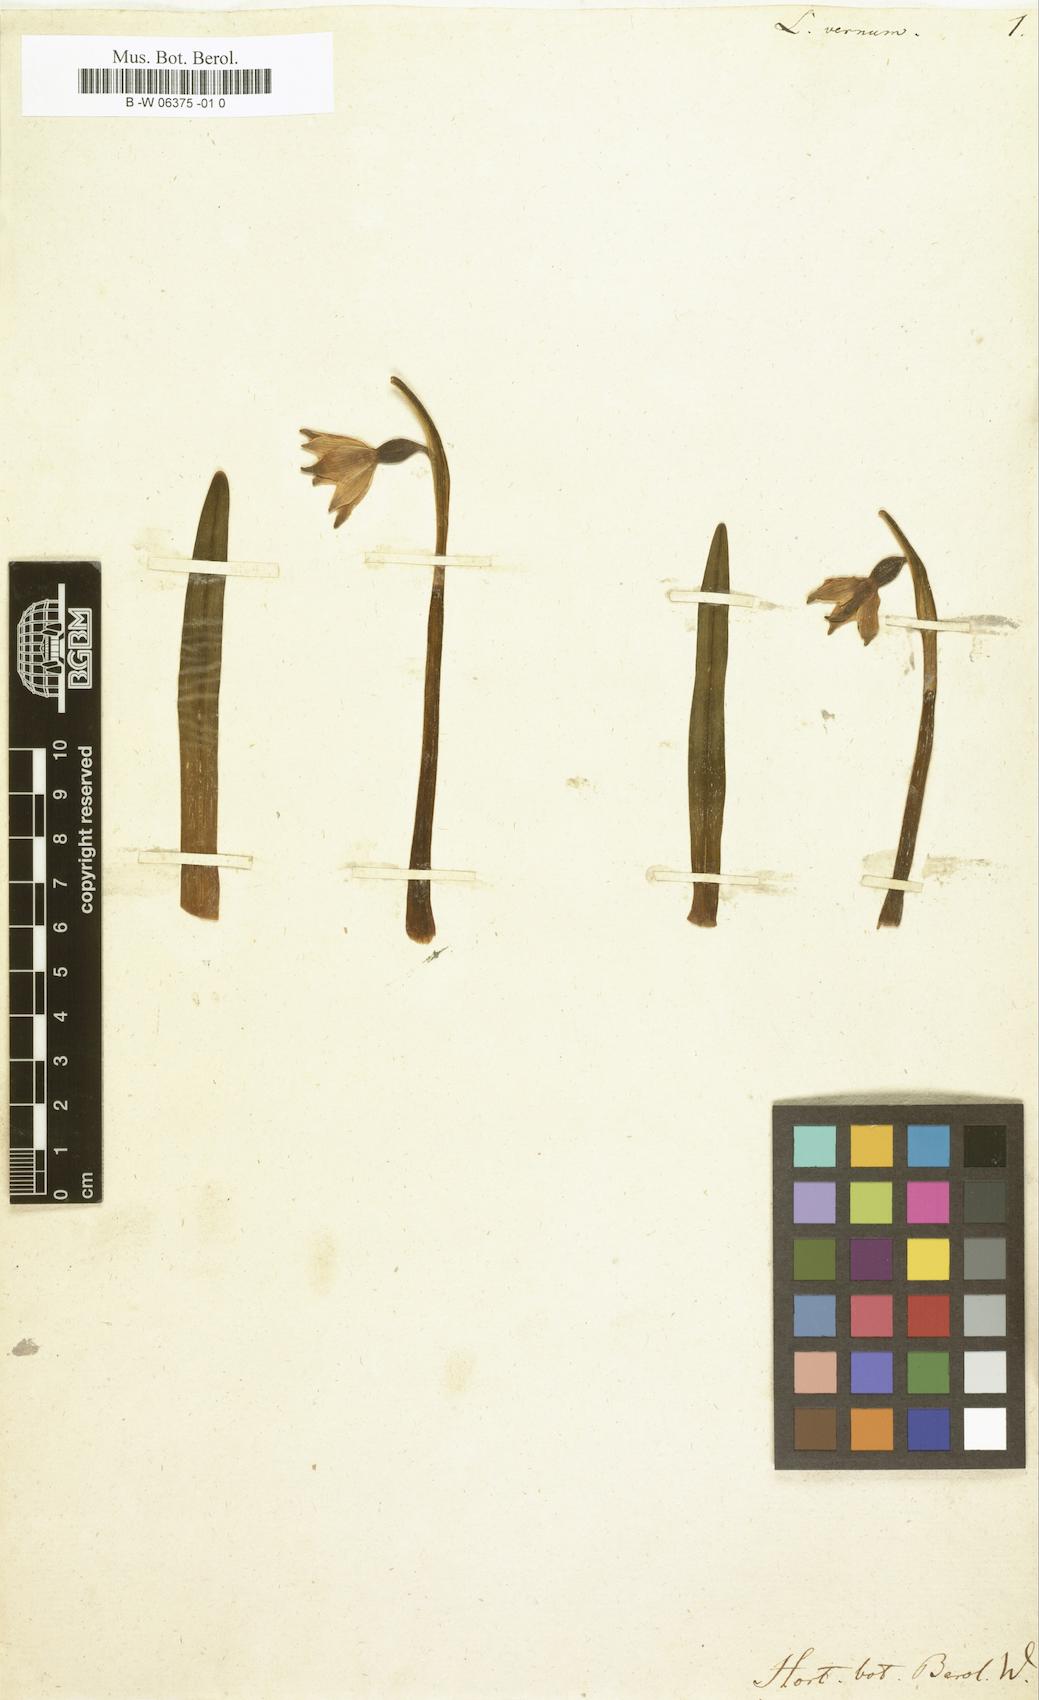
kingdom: Plantae
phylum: Tracheophyta
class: Liliopsida
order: Asparagales
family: Amaryllidaceae
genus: Leucojum
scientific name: Leucojum vernum
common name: Spring snowflake
